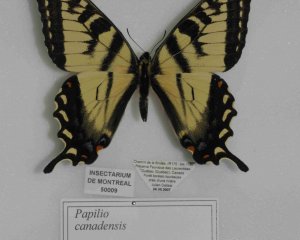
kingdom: Animalia
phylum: Arthropoda
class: Insecta
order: Lepidoptera
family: Papilionidae
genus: Pterourus
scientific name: Pterourus canadensis
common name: Canadian Tiger Swallowtail
